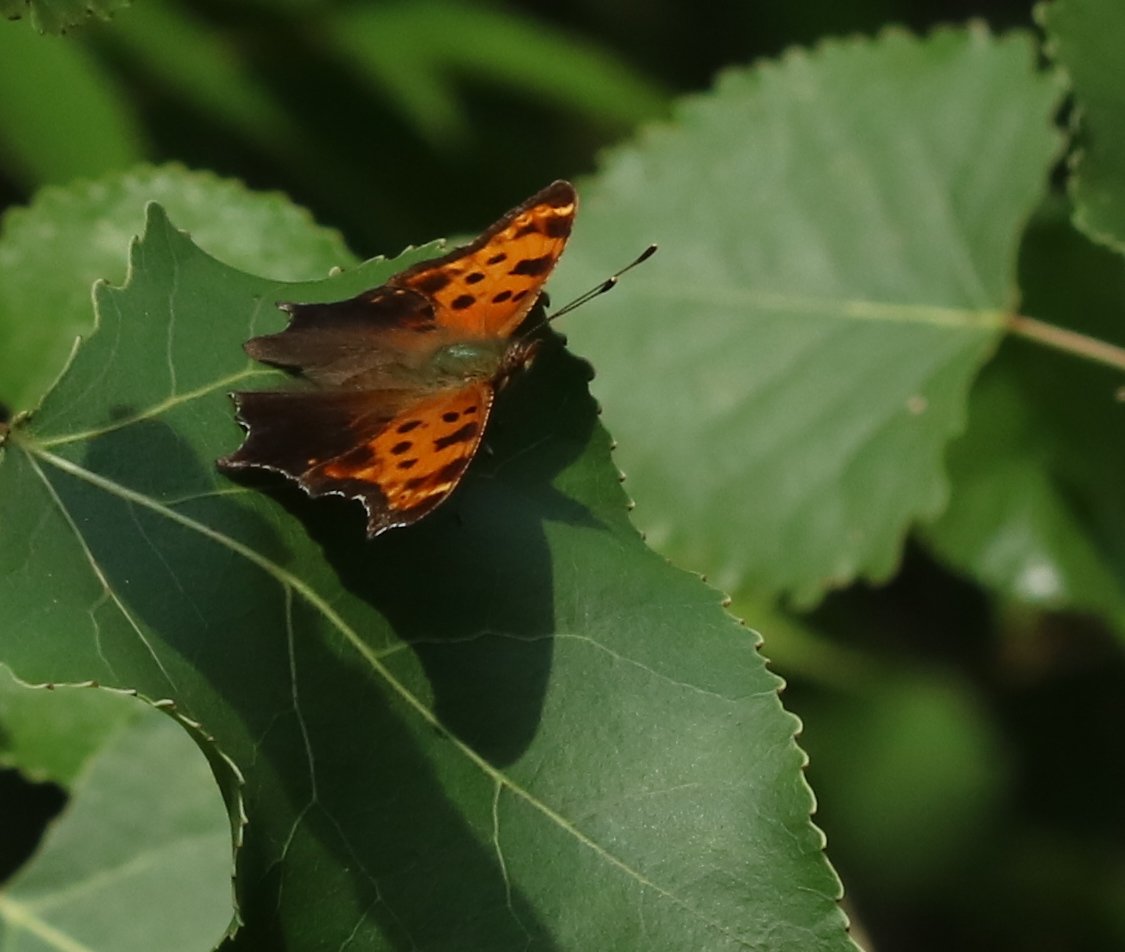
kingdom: Animalia
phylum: Arthropoda
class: Insecta
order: Lepidoptera
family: Nymphalidae
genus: Polygonia
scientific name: Polygonia interrogationis
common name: Question Mark
